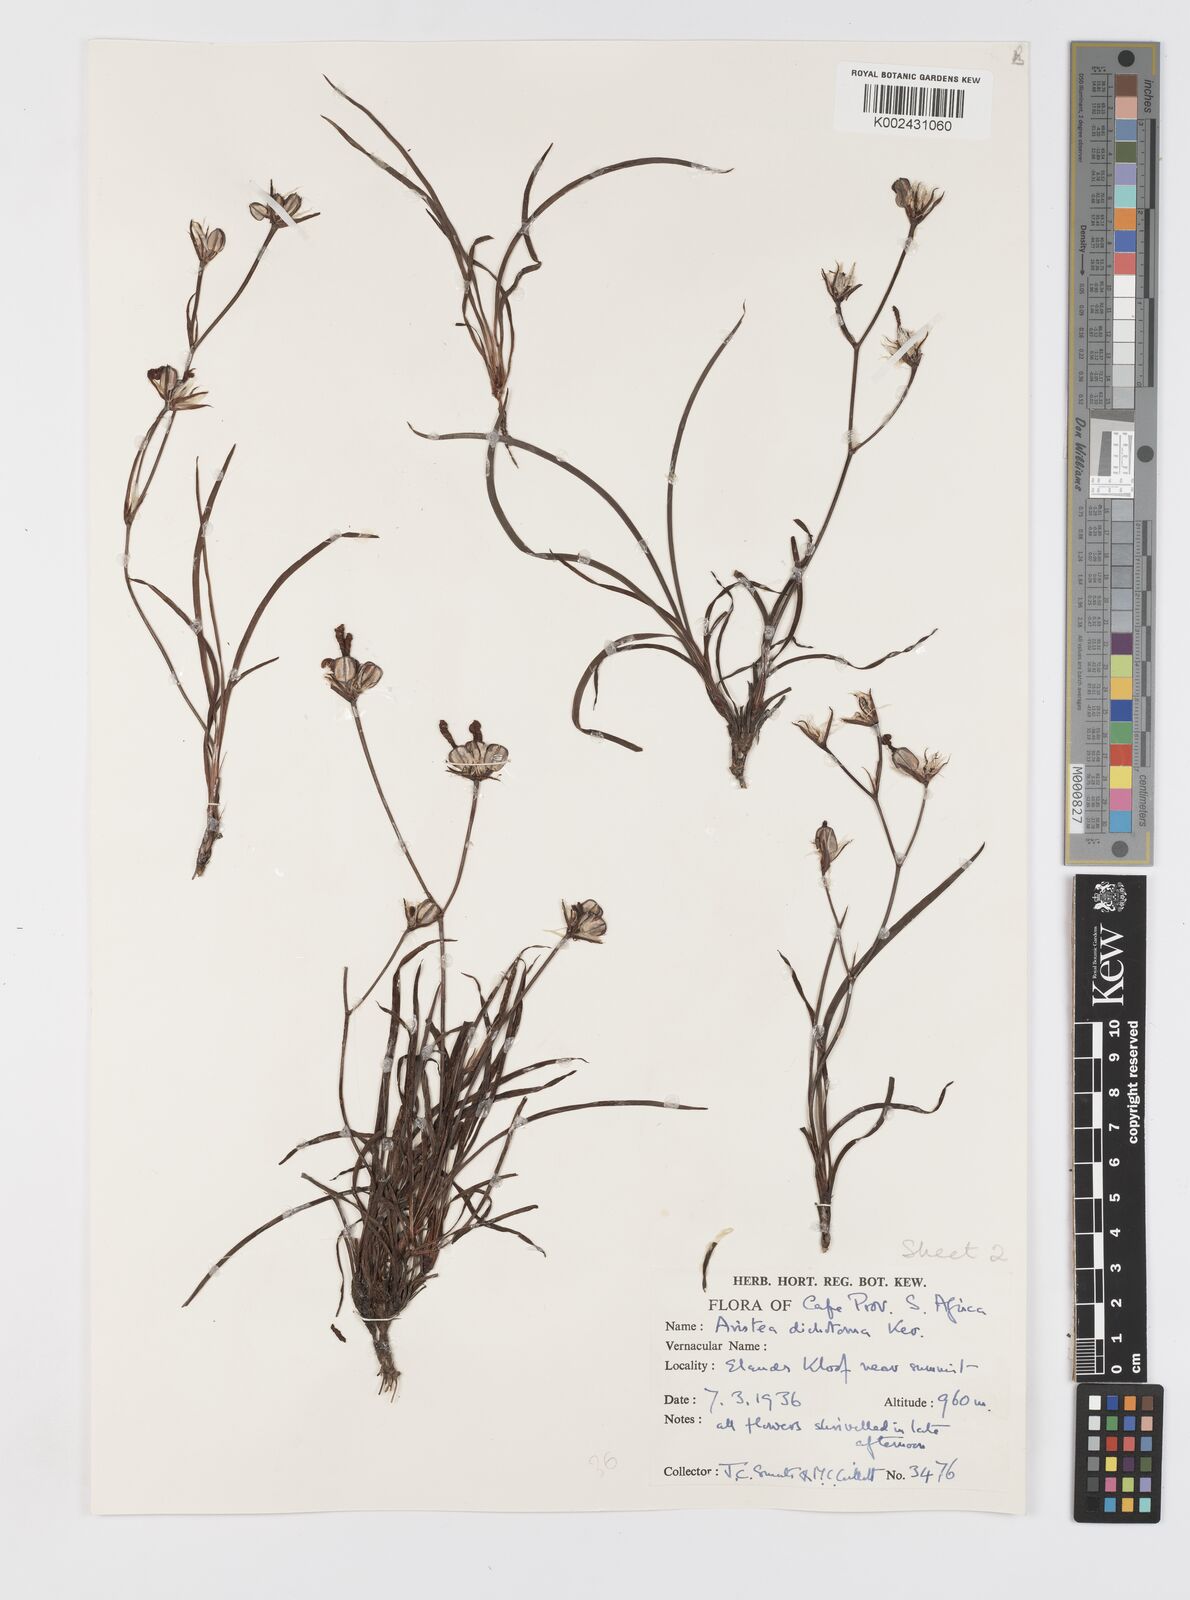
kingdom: Plantae
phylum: Tracheophyta
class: Liliopsida
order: Asparagales
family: Iridaceae
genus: Aristea
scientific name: Aristea dichotoma
